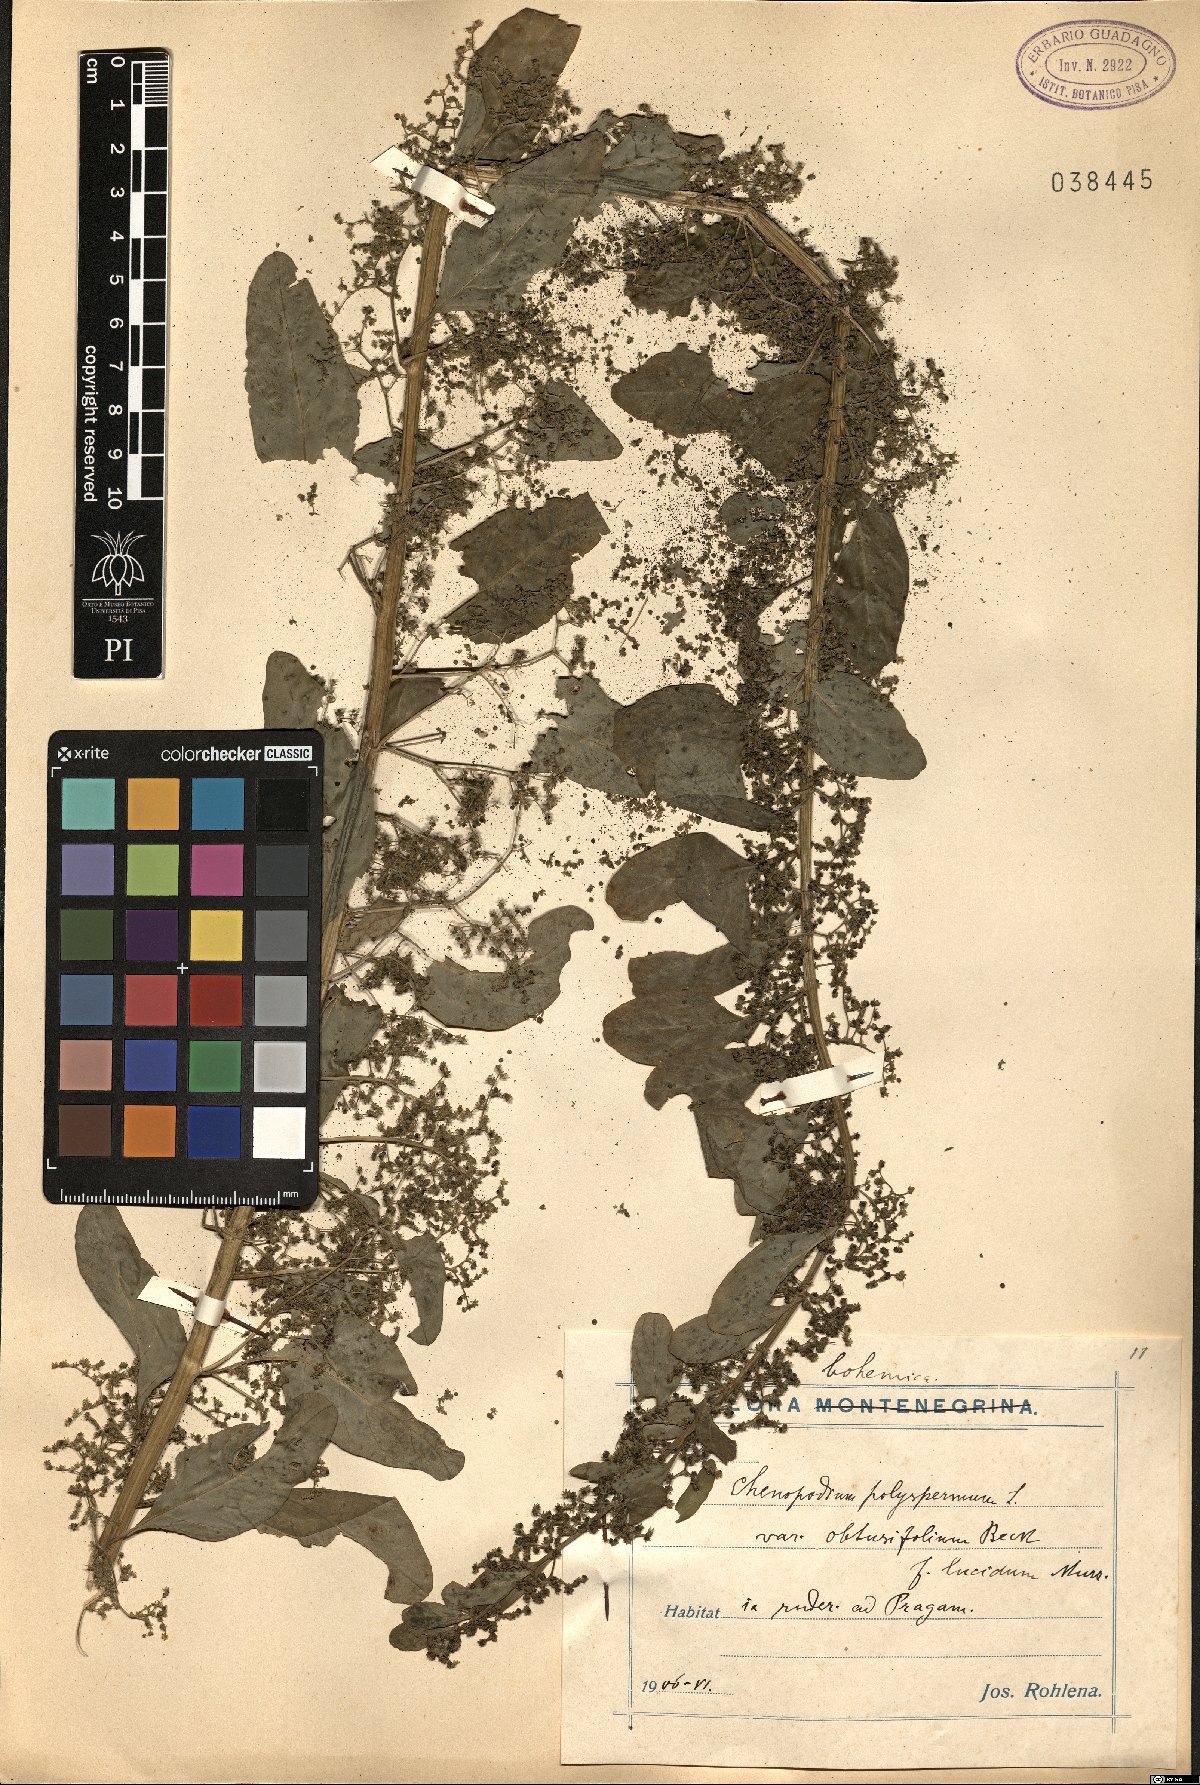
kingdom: Plantae
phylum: Tracheophyta
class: Magnoliopsida
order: Caryophyllales
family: Amaranthaceae
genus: Lipandra
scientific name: Lipandra polysperma
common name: Many-seed goosefoot
